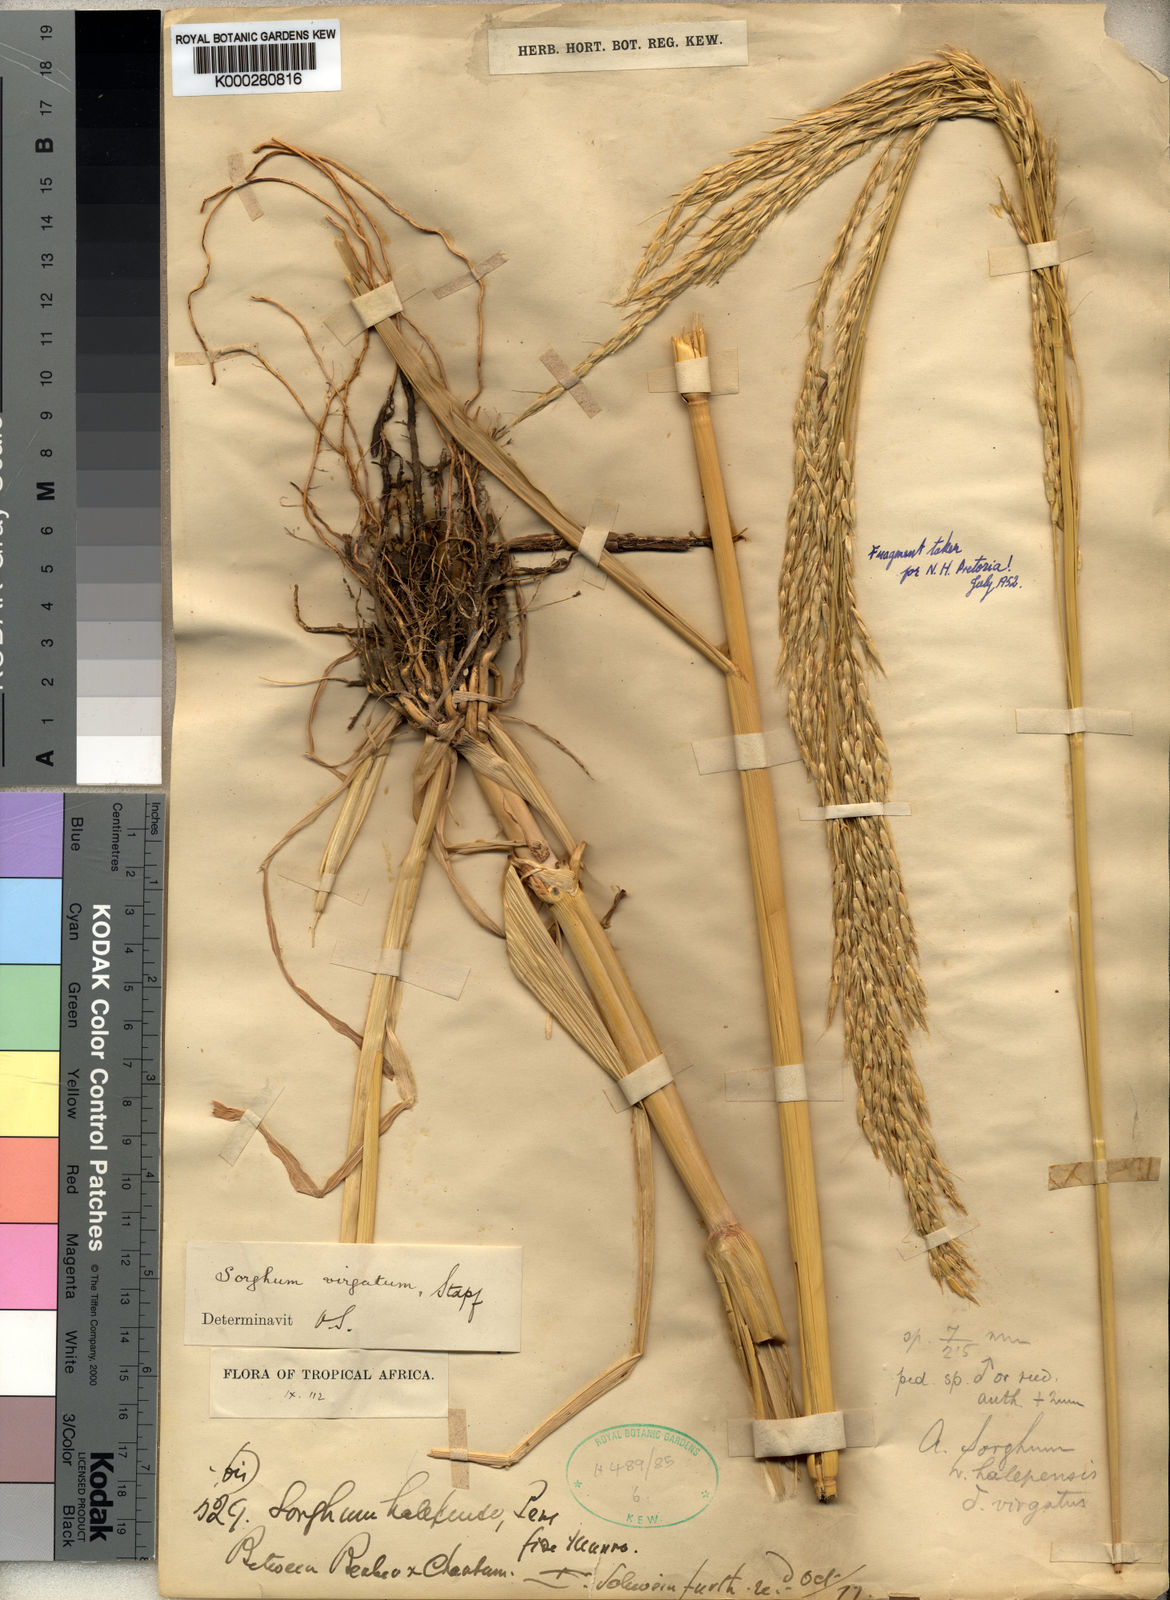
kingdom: Plantae
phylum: Tracheophyta
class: Liliopsida
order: Poales
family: Poaceae
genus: Sorghum
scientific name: Sorghum virgatum
